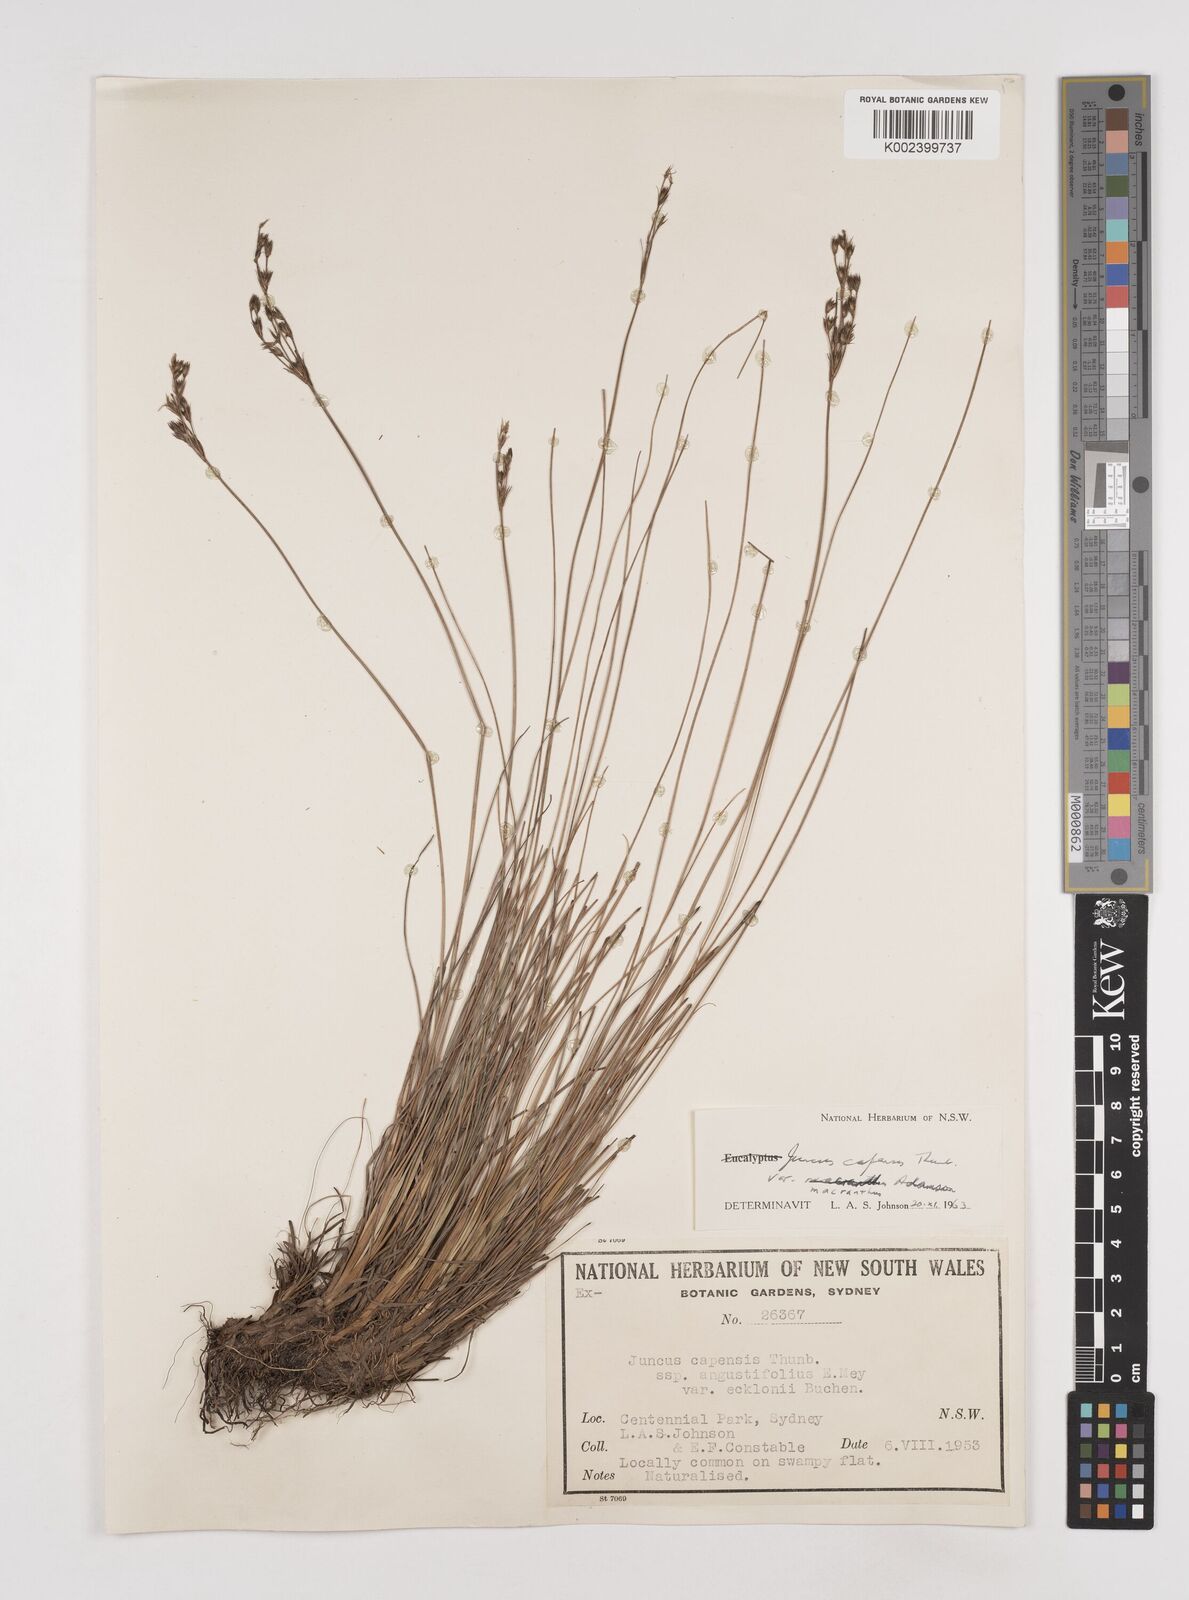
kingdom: Plantae
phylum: Tracheophyta
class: Liliopsida
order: Poales
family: Juncaceae
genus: Juncus
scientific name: Juncus capensis
